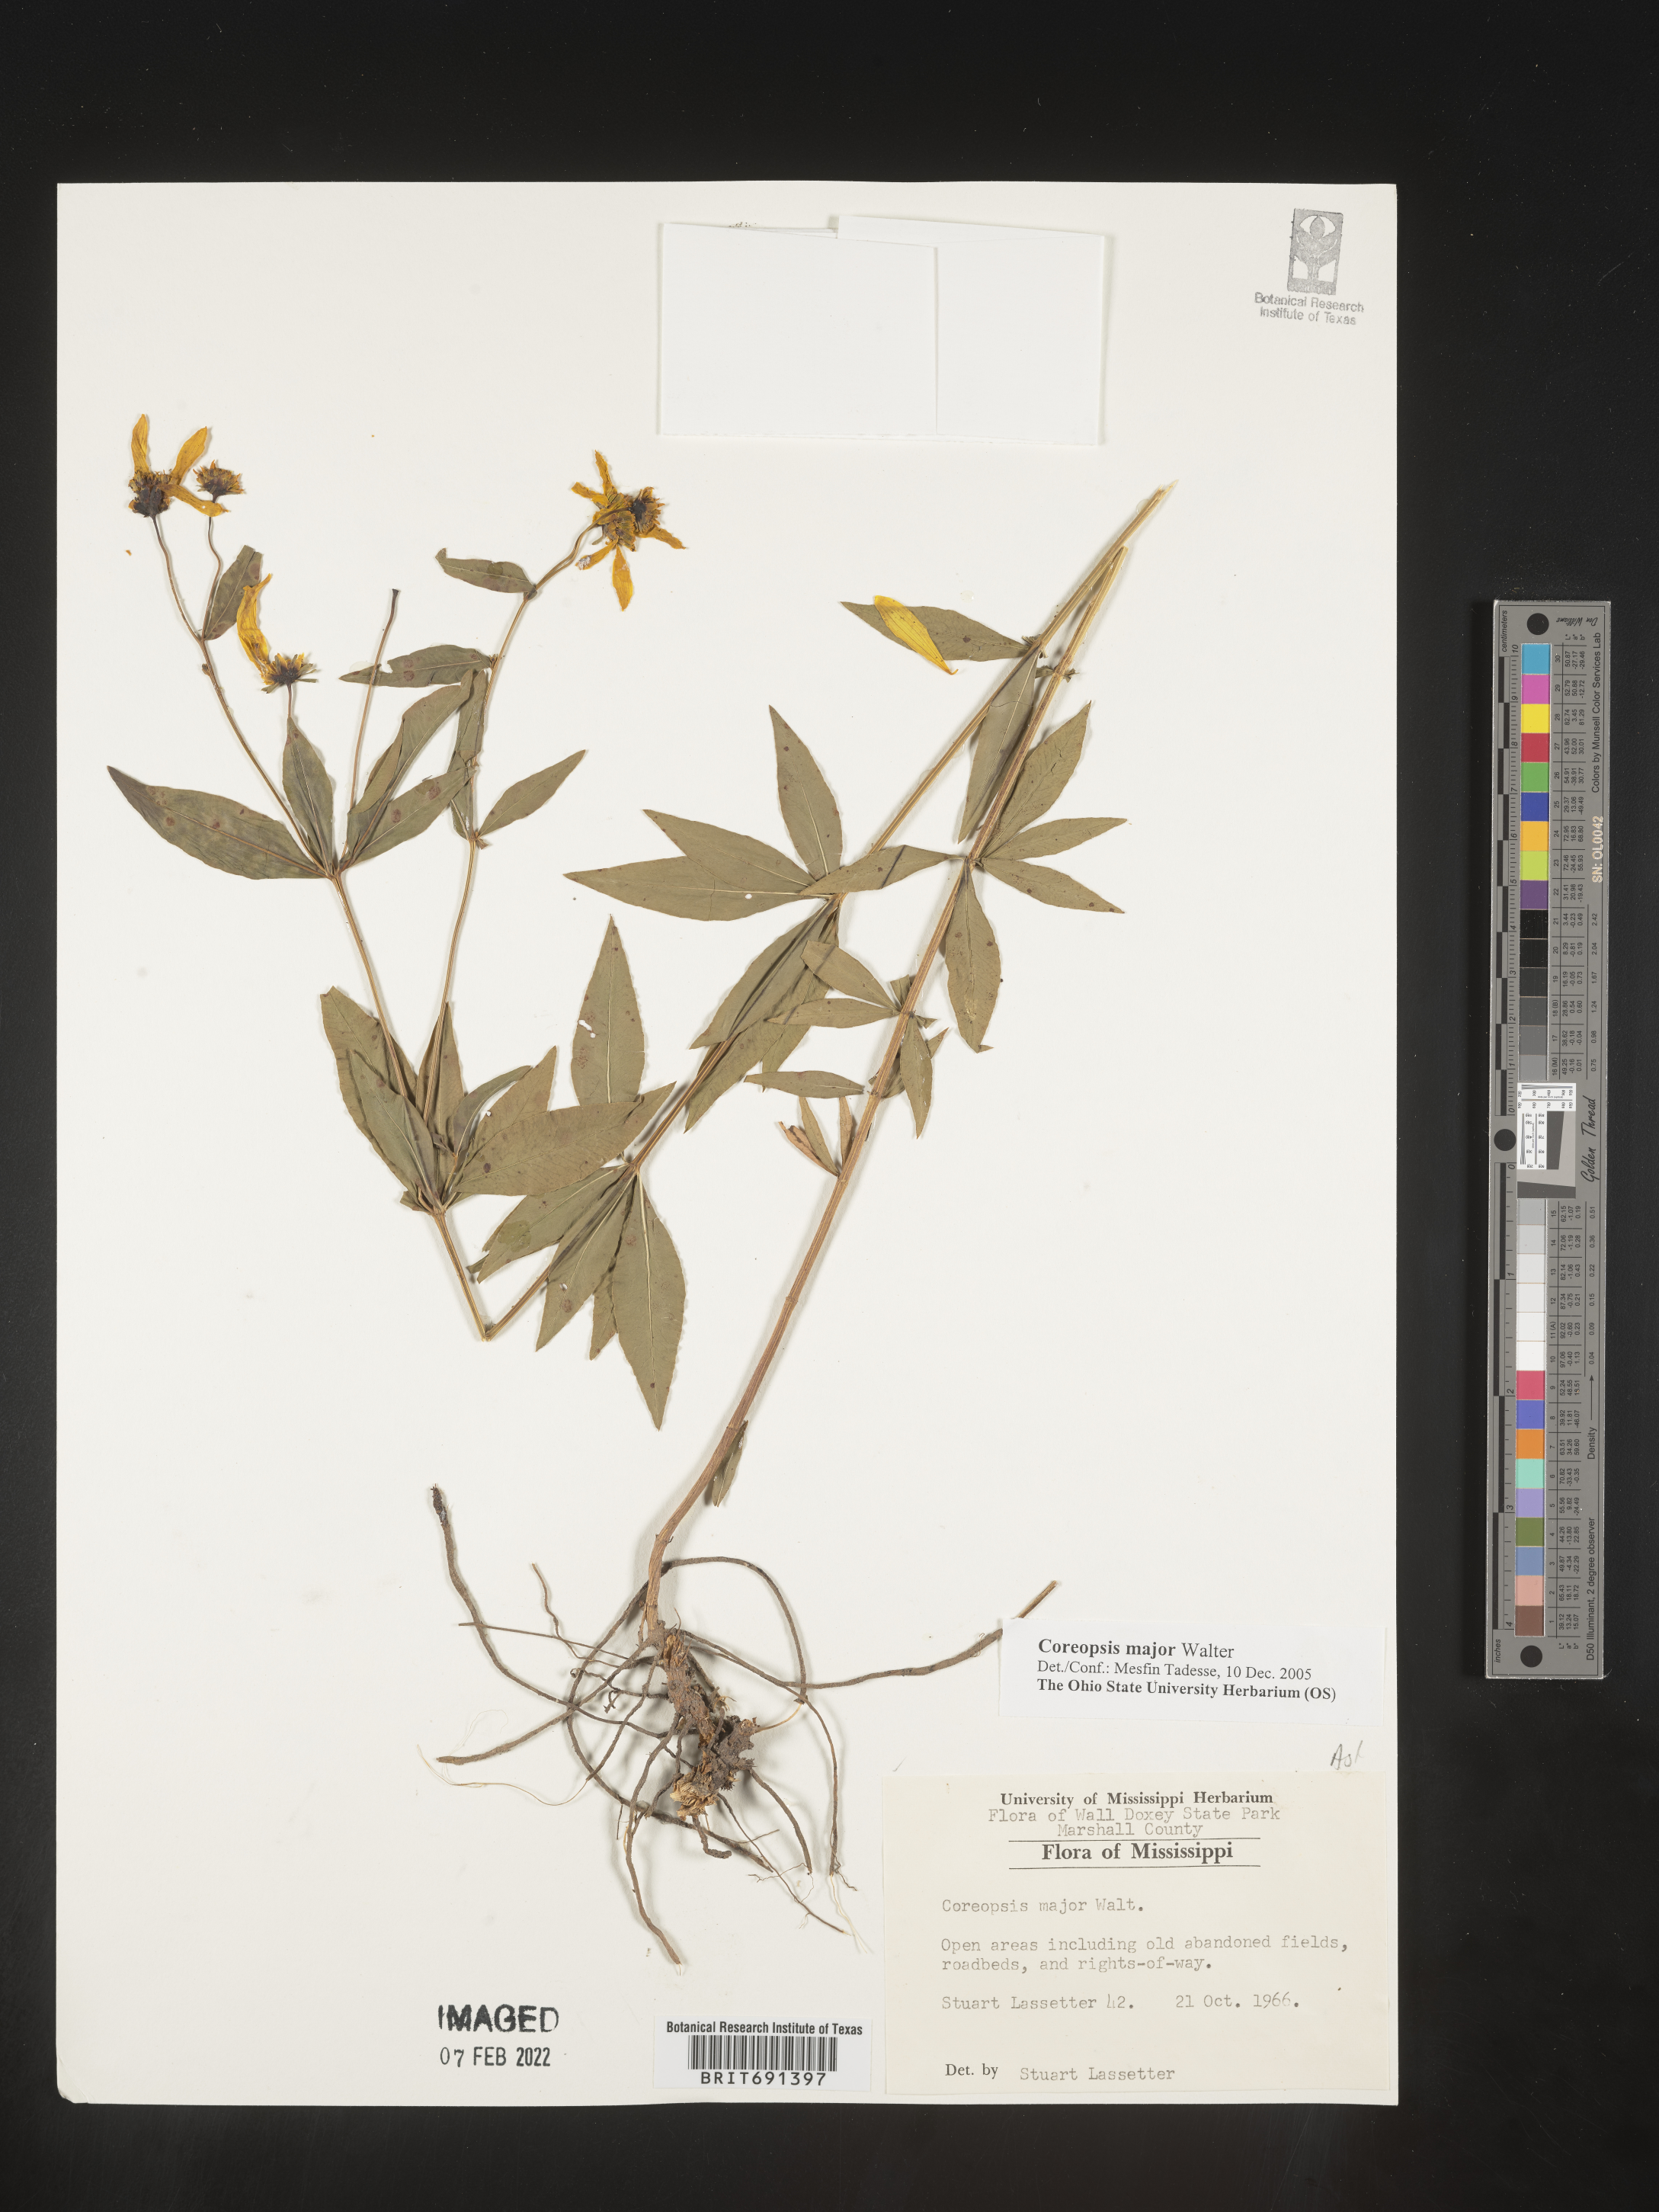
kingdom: Plantae
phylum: Tracheophyta
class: Magnoliopsida
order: Asterales
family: Asteraceae
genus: Coreopsis
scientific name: Coreopsis major
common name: Forest tickseed
